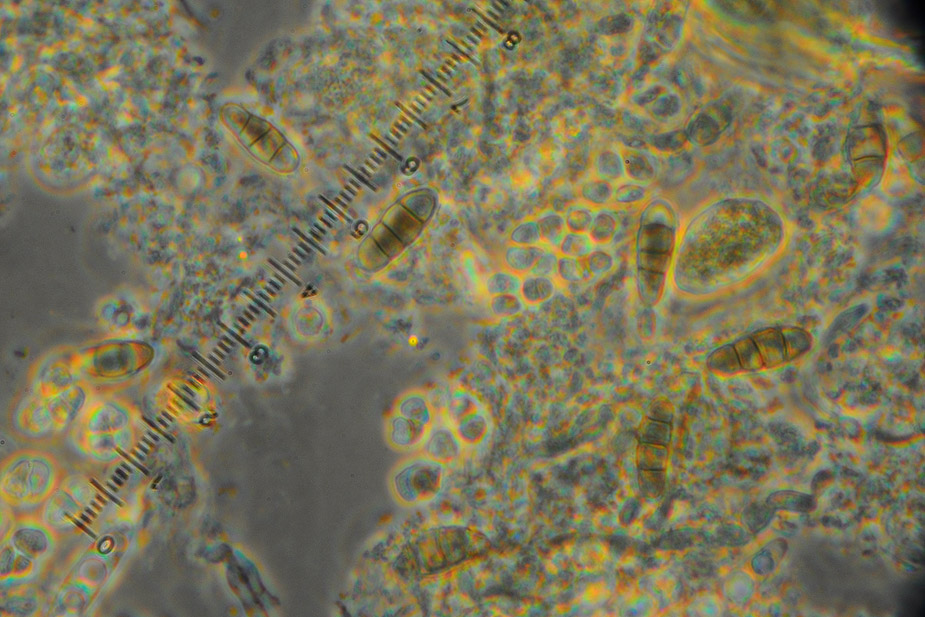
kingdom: Fungi
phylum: Ascomycota
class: Leotiomycetes
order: Helotiales
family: Hyaloscyphaceae
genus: Polydesmia
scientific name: Polydesmia pruinosa
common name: dunskive
